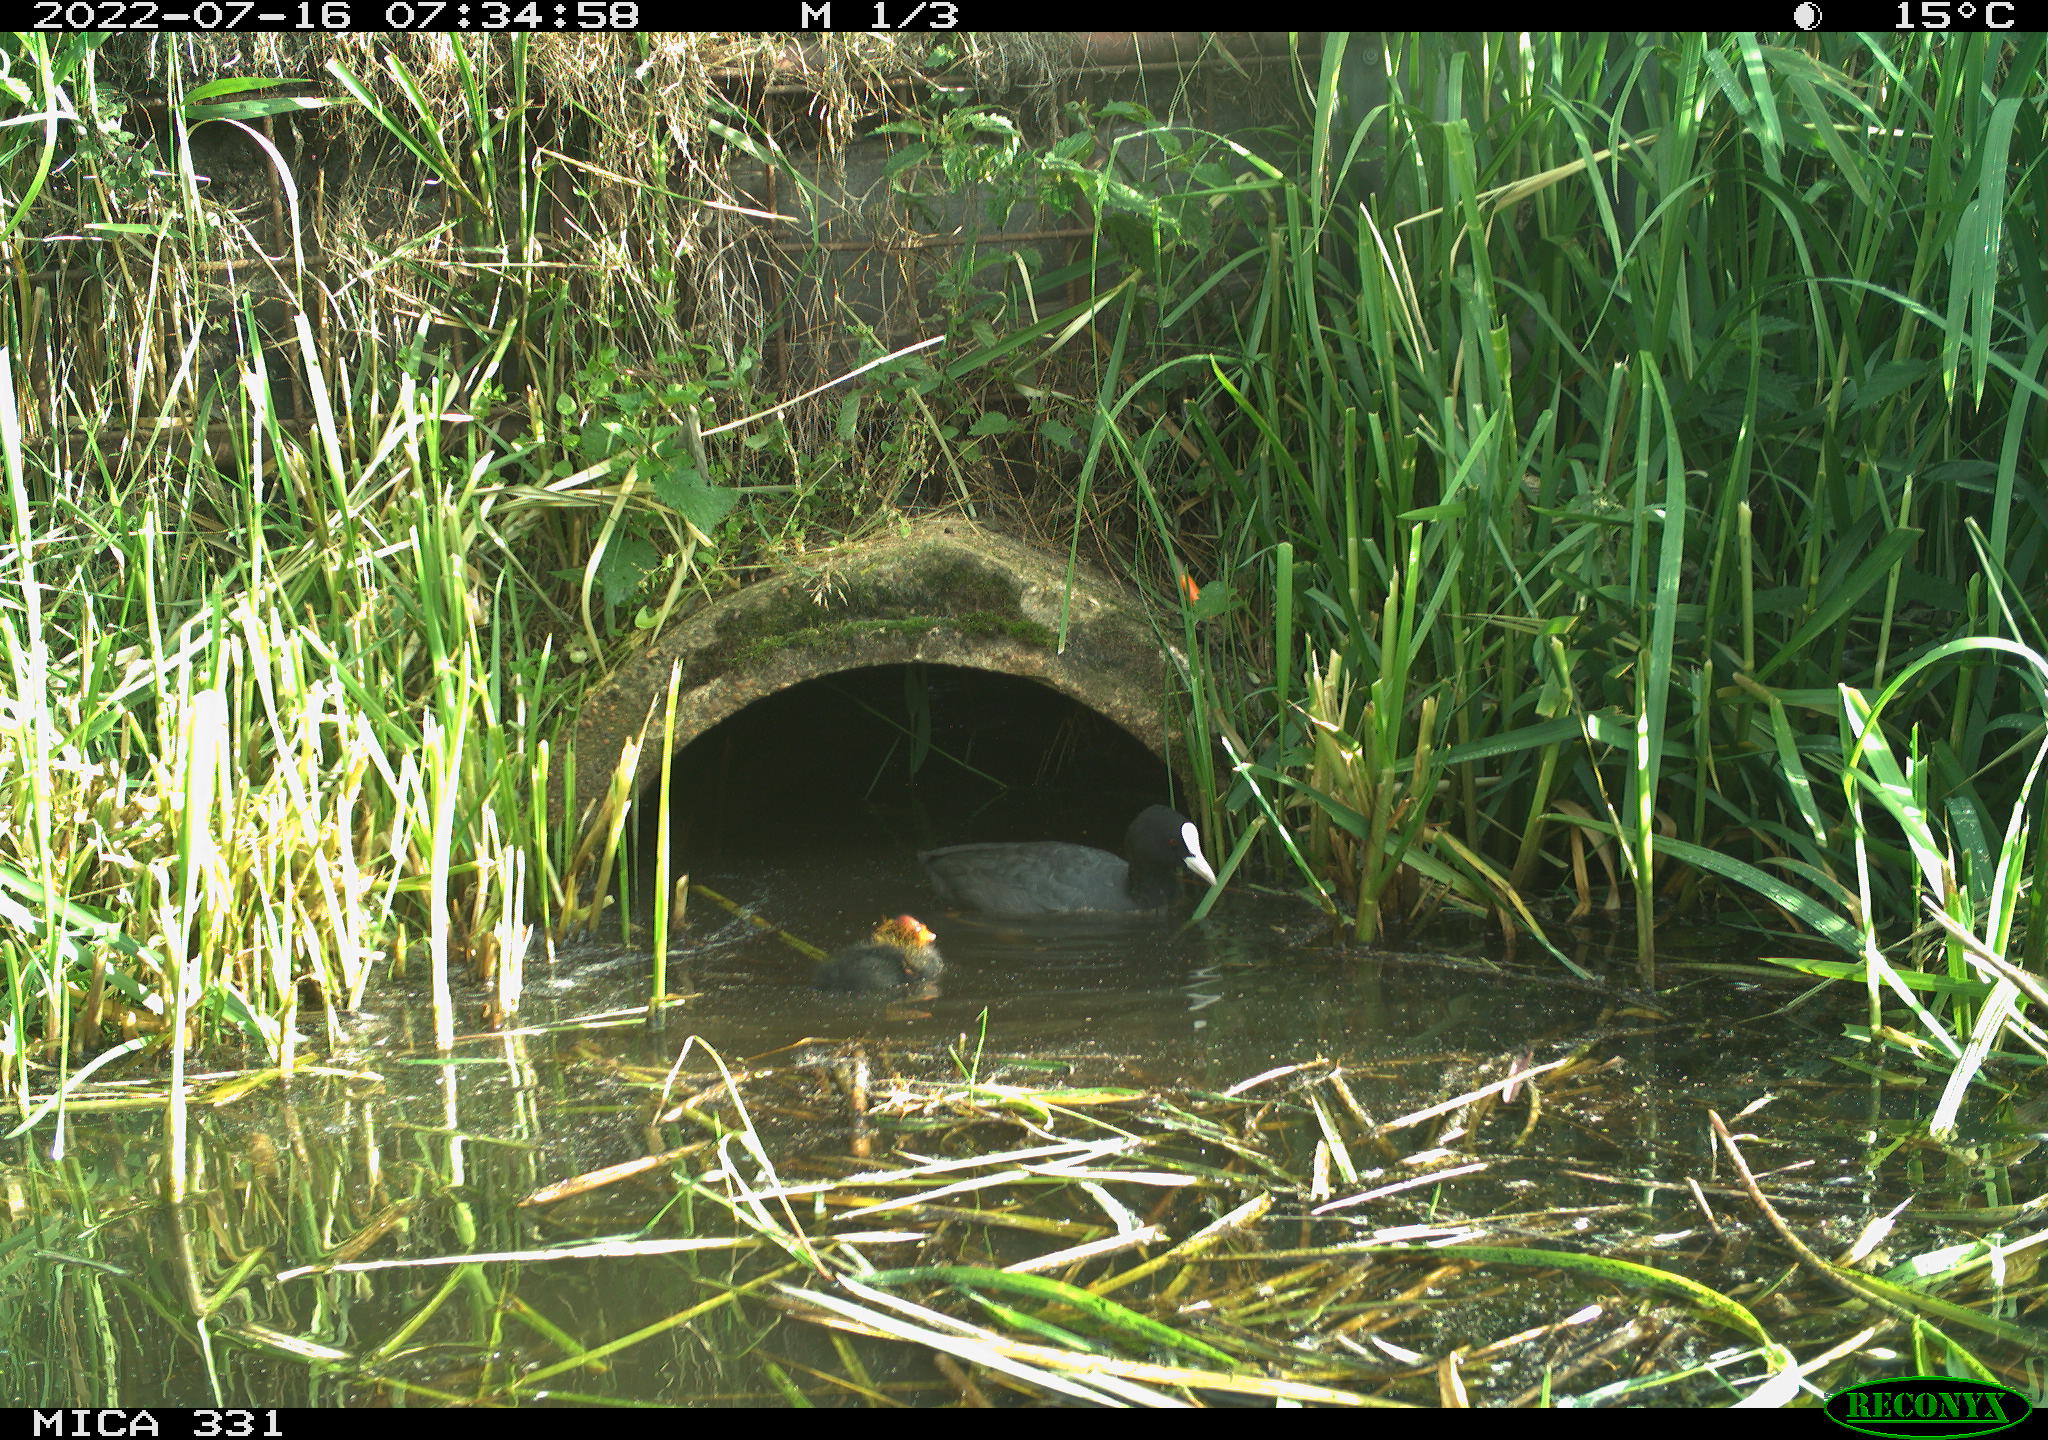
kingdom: Animalia
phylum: Chordata
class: Aves
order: Gruiformes
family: Rallidae
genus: Fulica
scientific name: Fulica atra
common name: Eurasian coot
